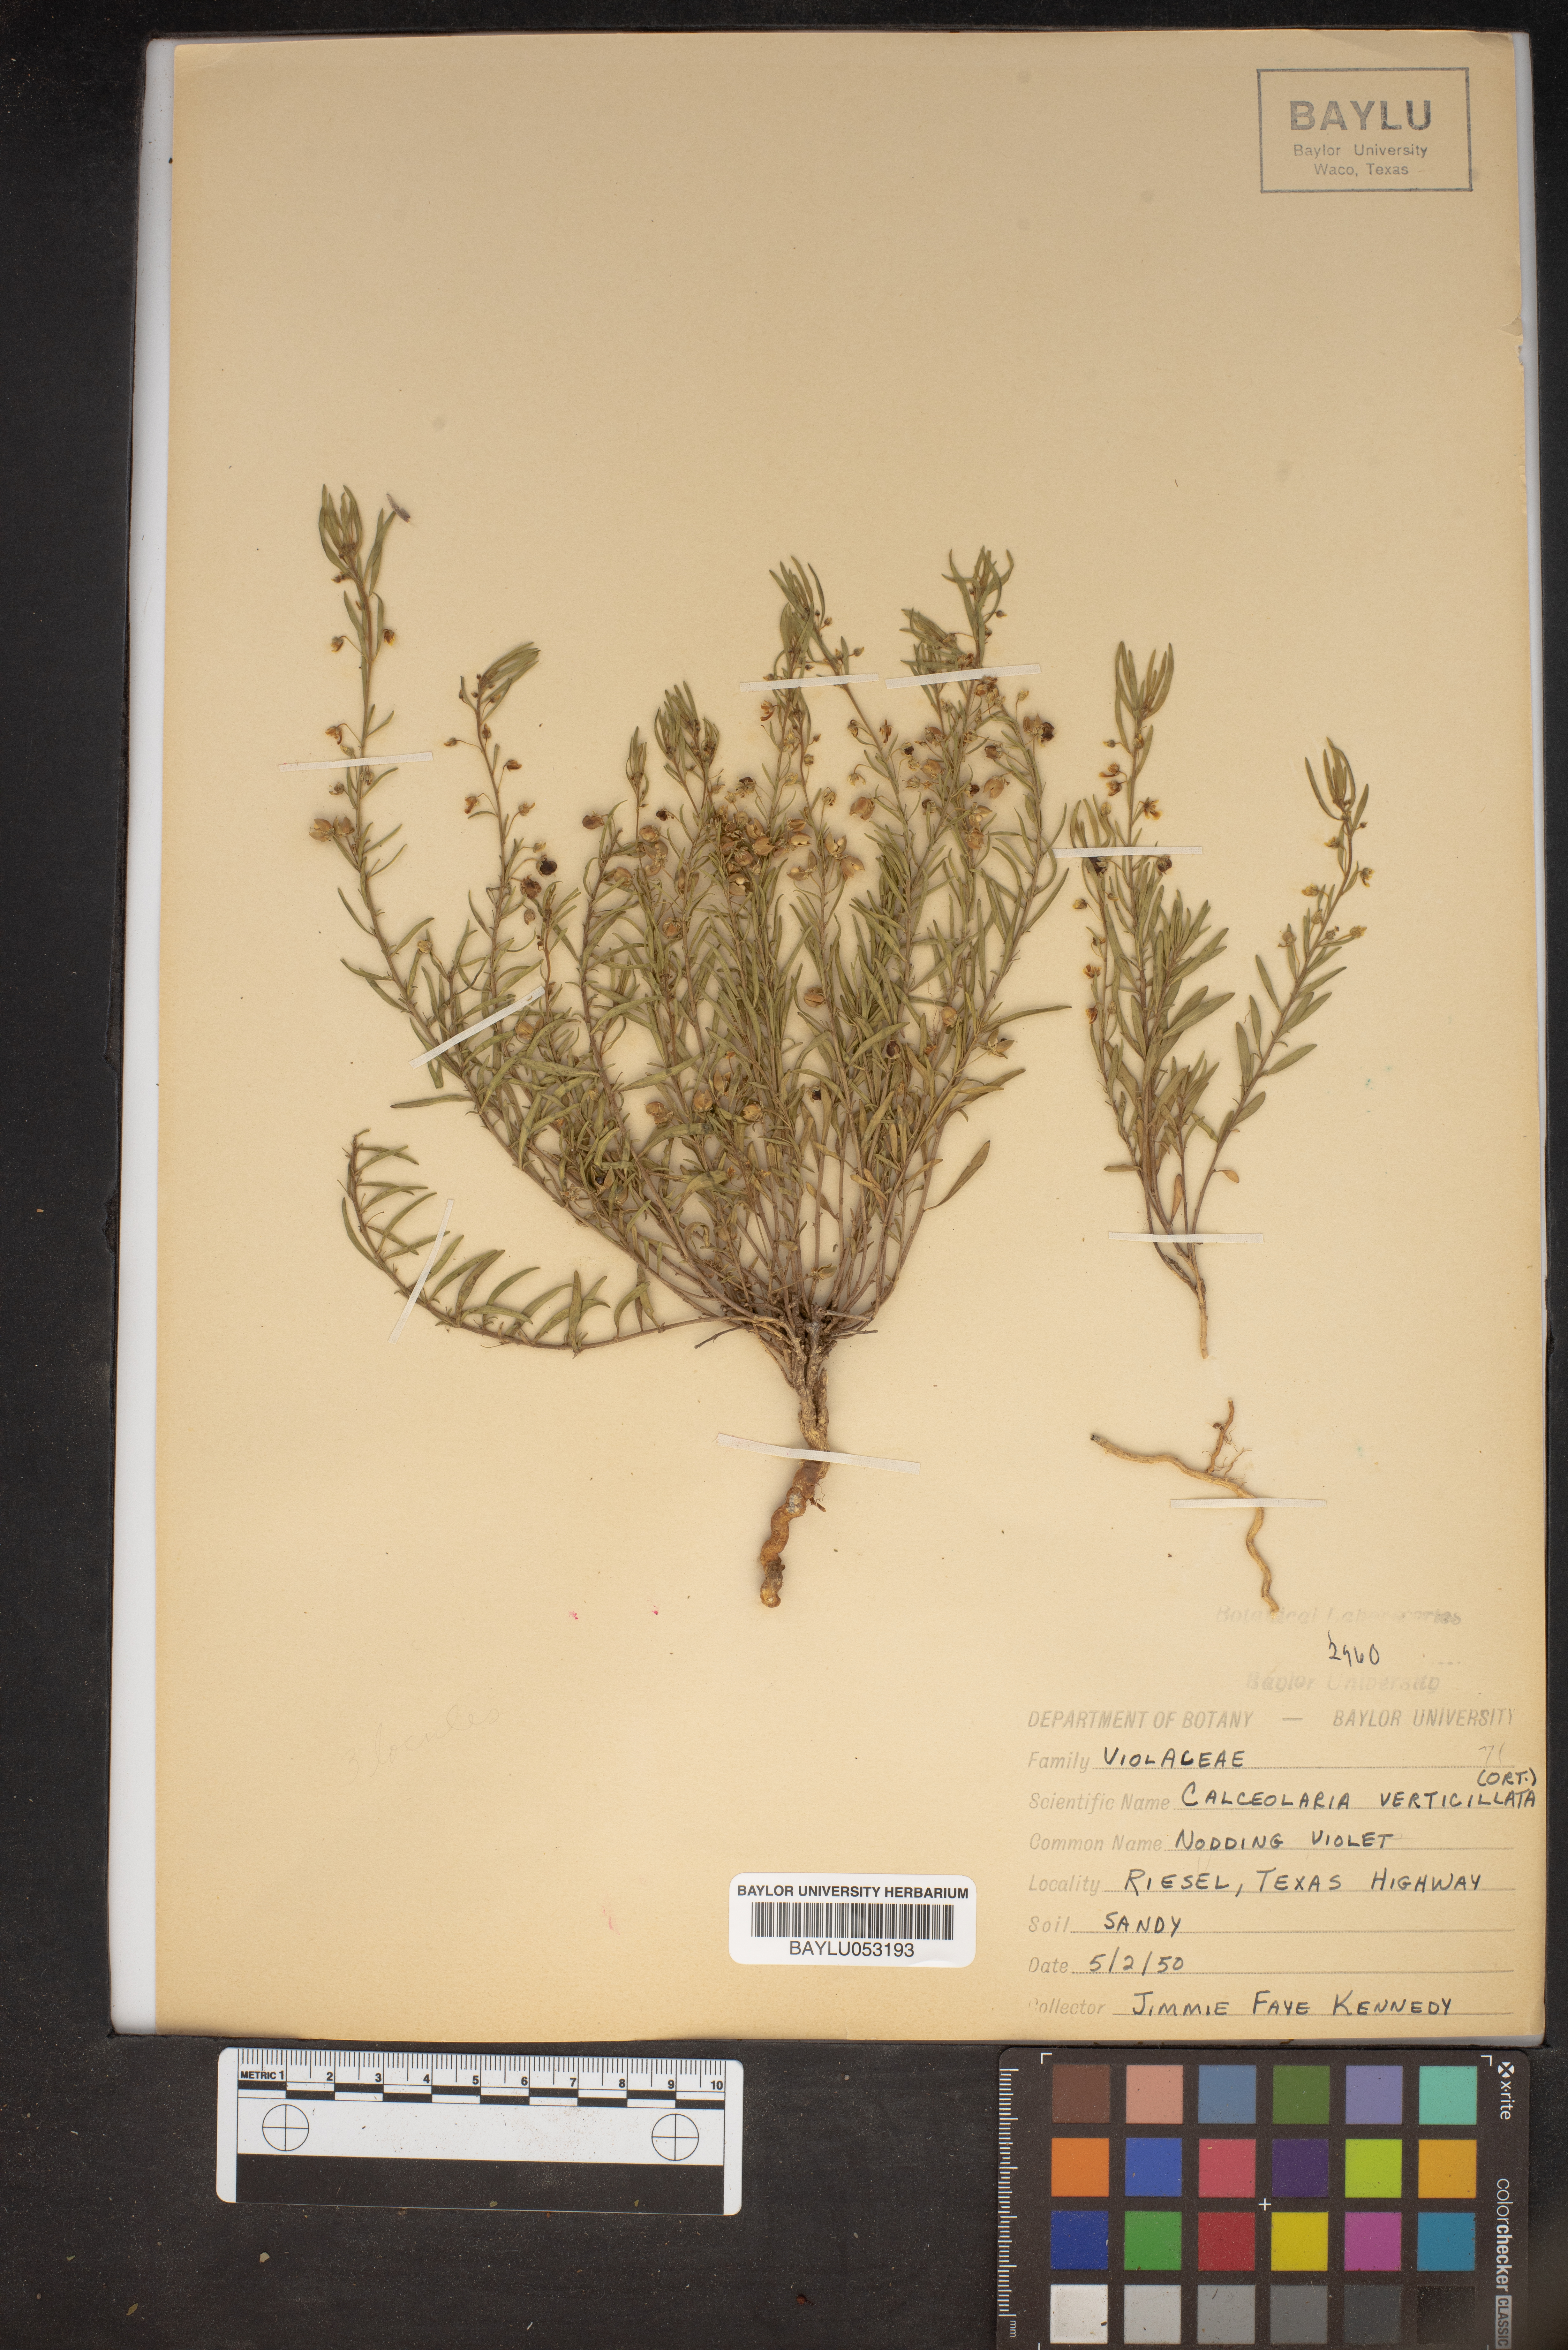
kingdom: Plantae
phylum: Tracheophyta
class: Magnoliopsida
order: Malpighiales
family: Violaceae
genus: Pombalia
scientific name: Pombalia verticillata
